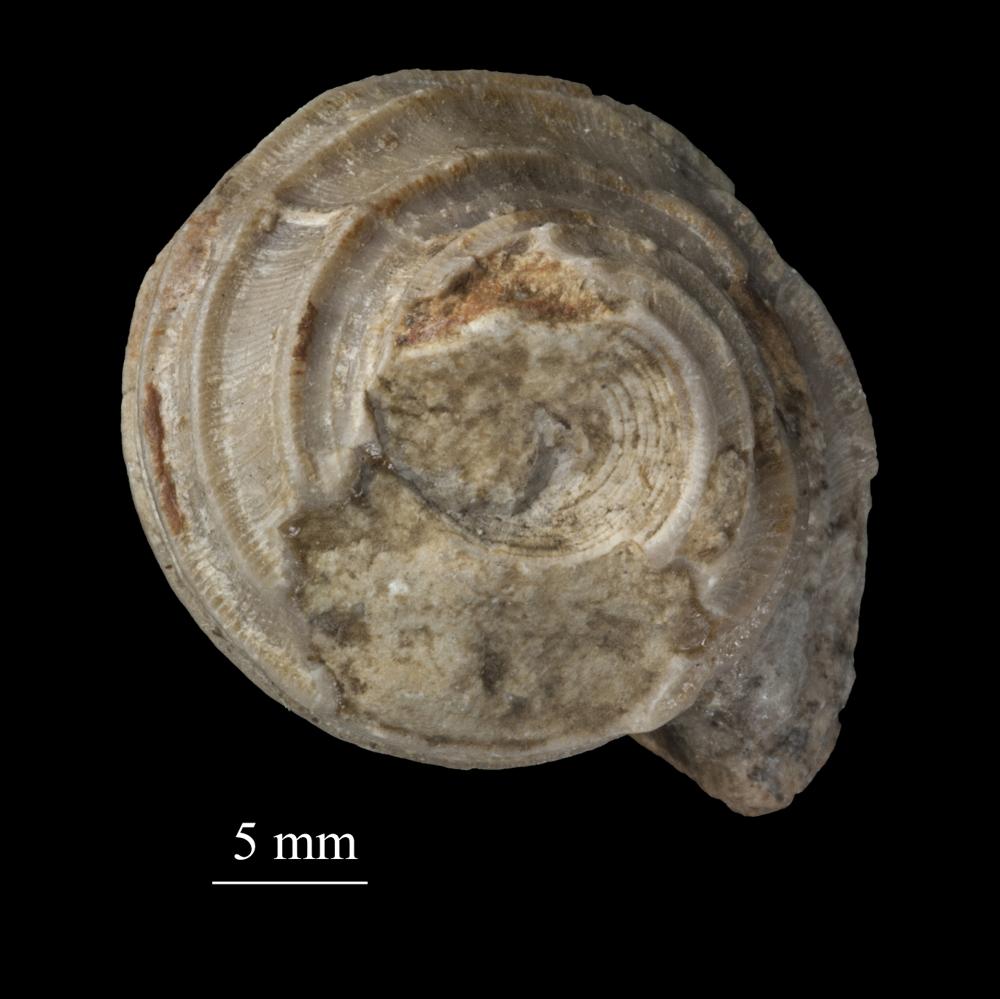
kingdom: Animalia
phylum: Mollusca
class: Gastropoda
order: Trochida
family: Trochidae
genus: Trochus
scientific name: Trochus
